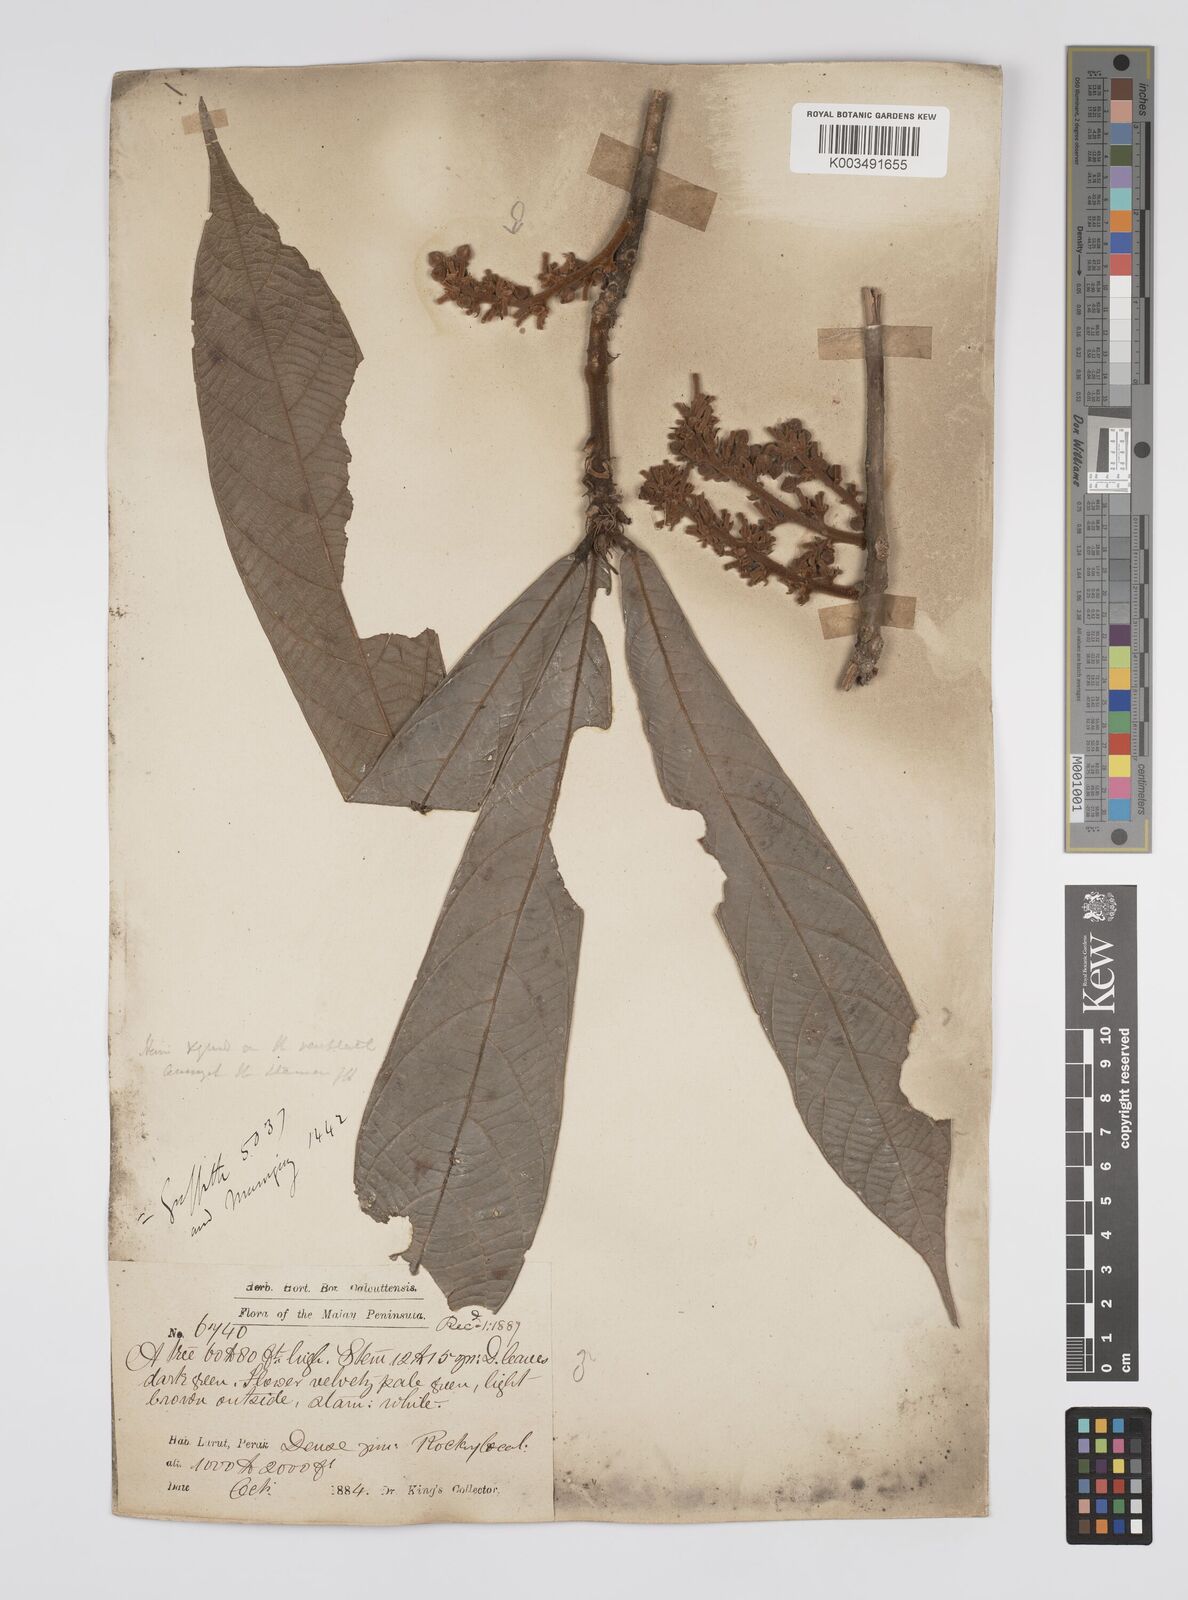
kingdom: Plantae
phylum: Tracheophyta
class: Magnoliopsida
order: Malpighiales
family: Euphorbiaceae
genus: Ptychopyxis
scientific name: Ptychopyxis costata
